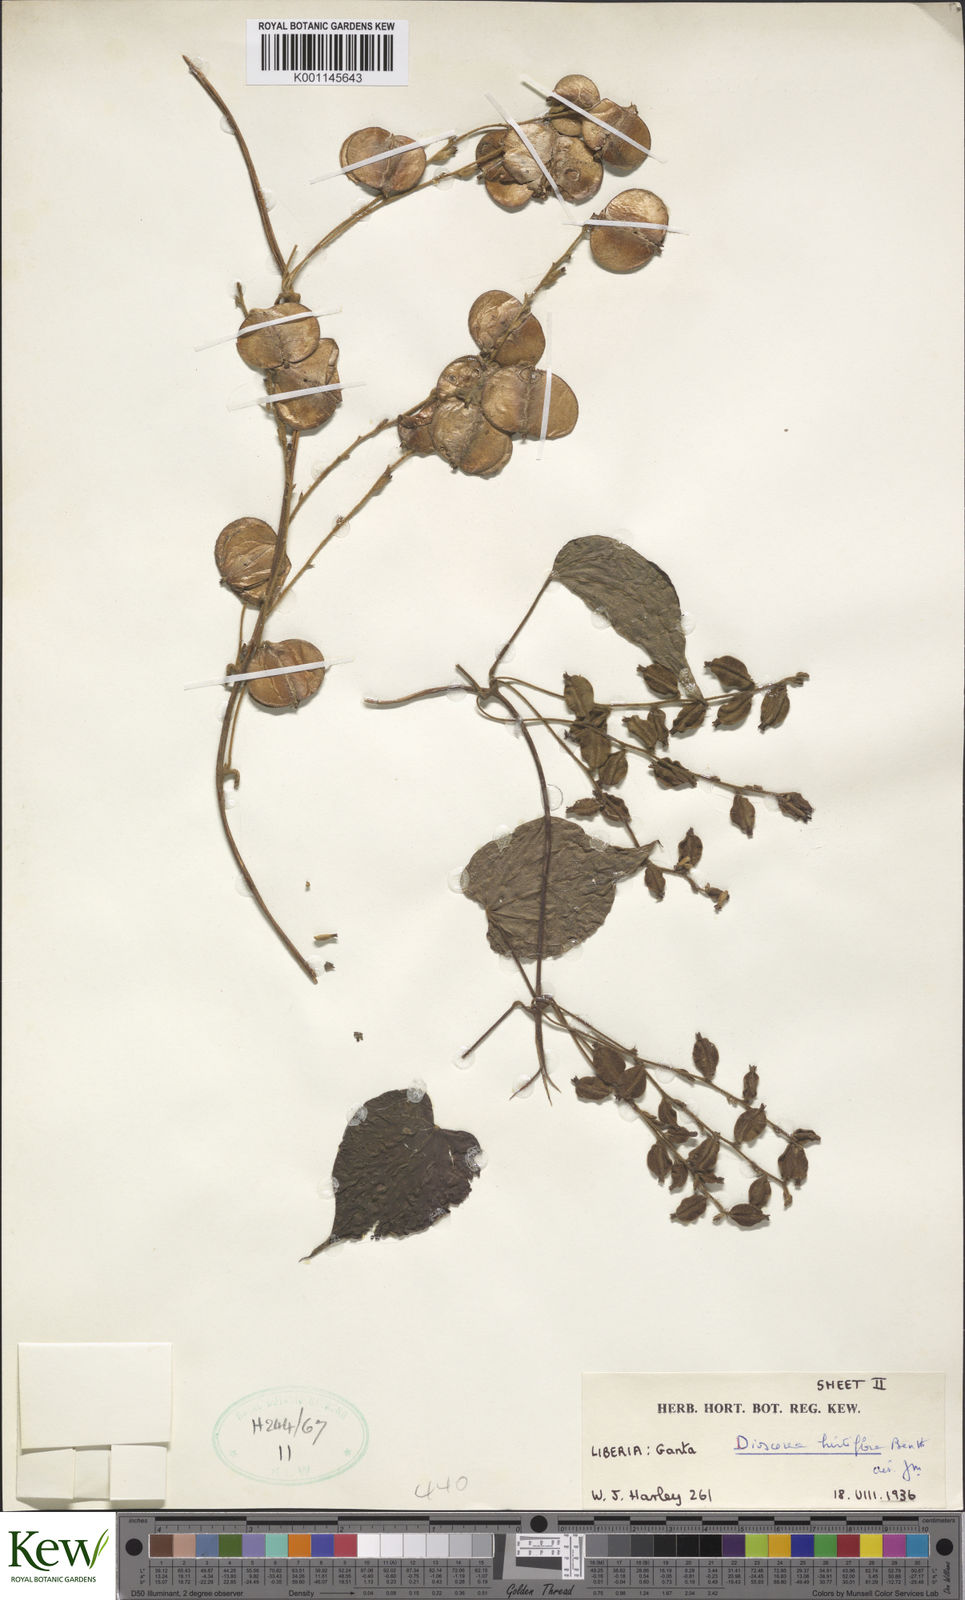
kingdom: Plantae
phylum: Tracheophyta
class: Liliopsida
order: Dioscoreales
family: Dioscoreaceae
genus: Dioscorea
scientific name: Dioscorea hirtiflora
